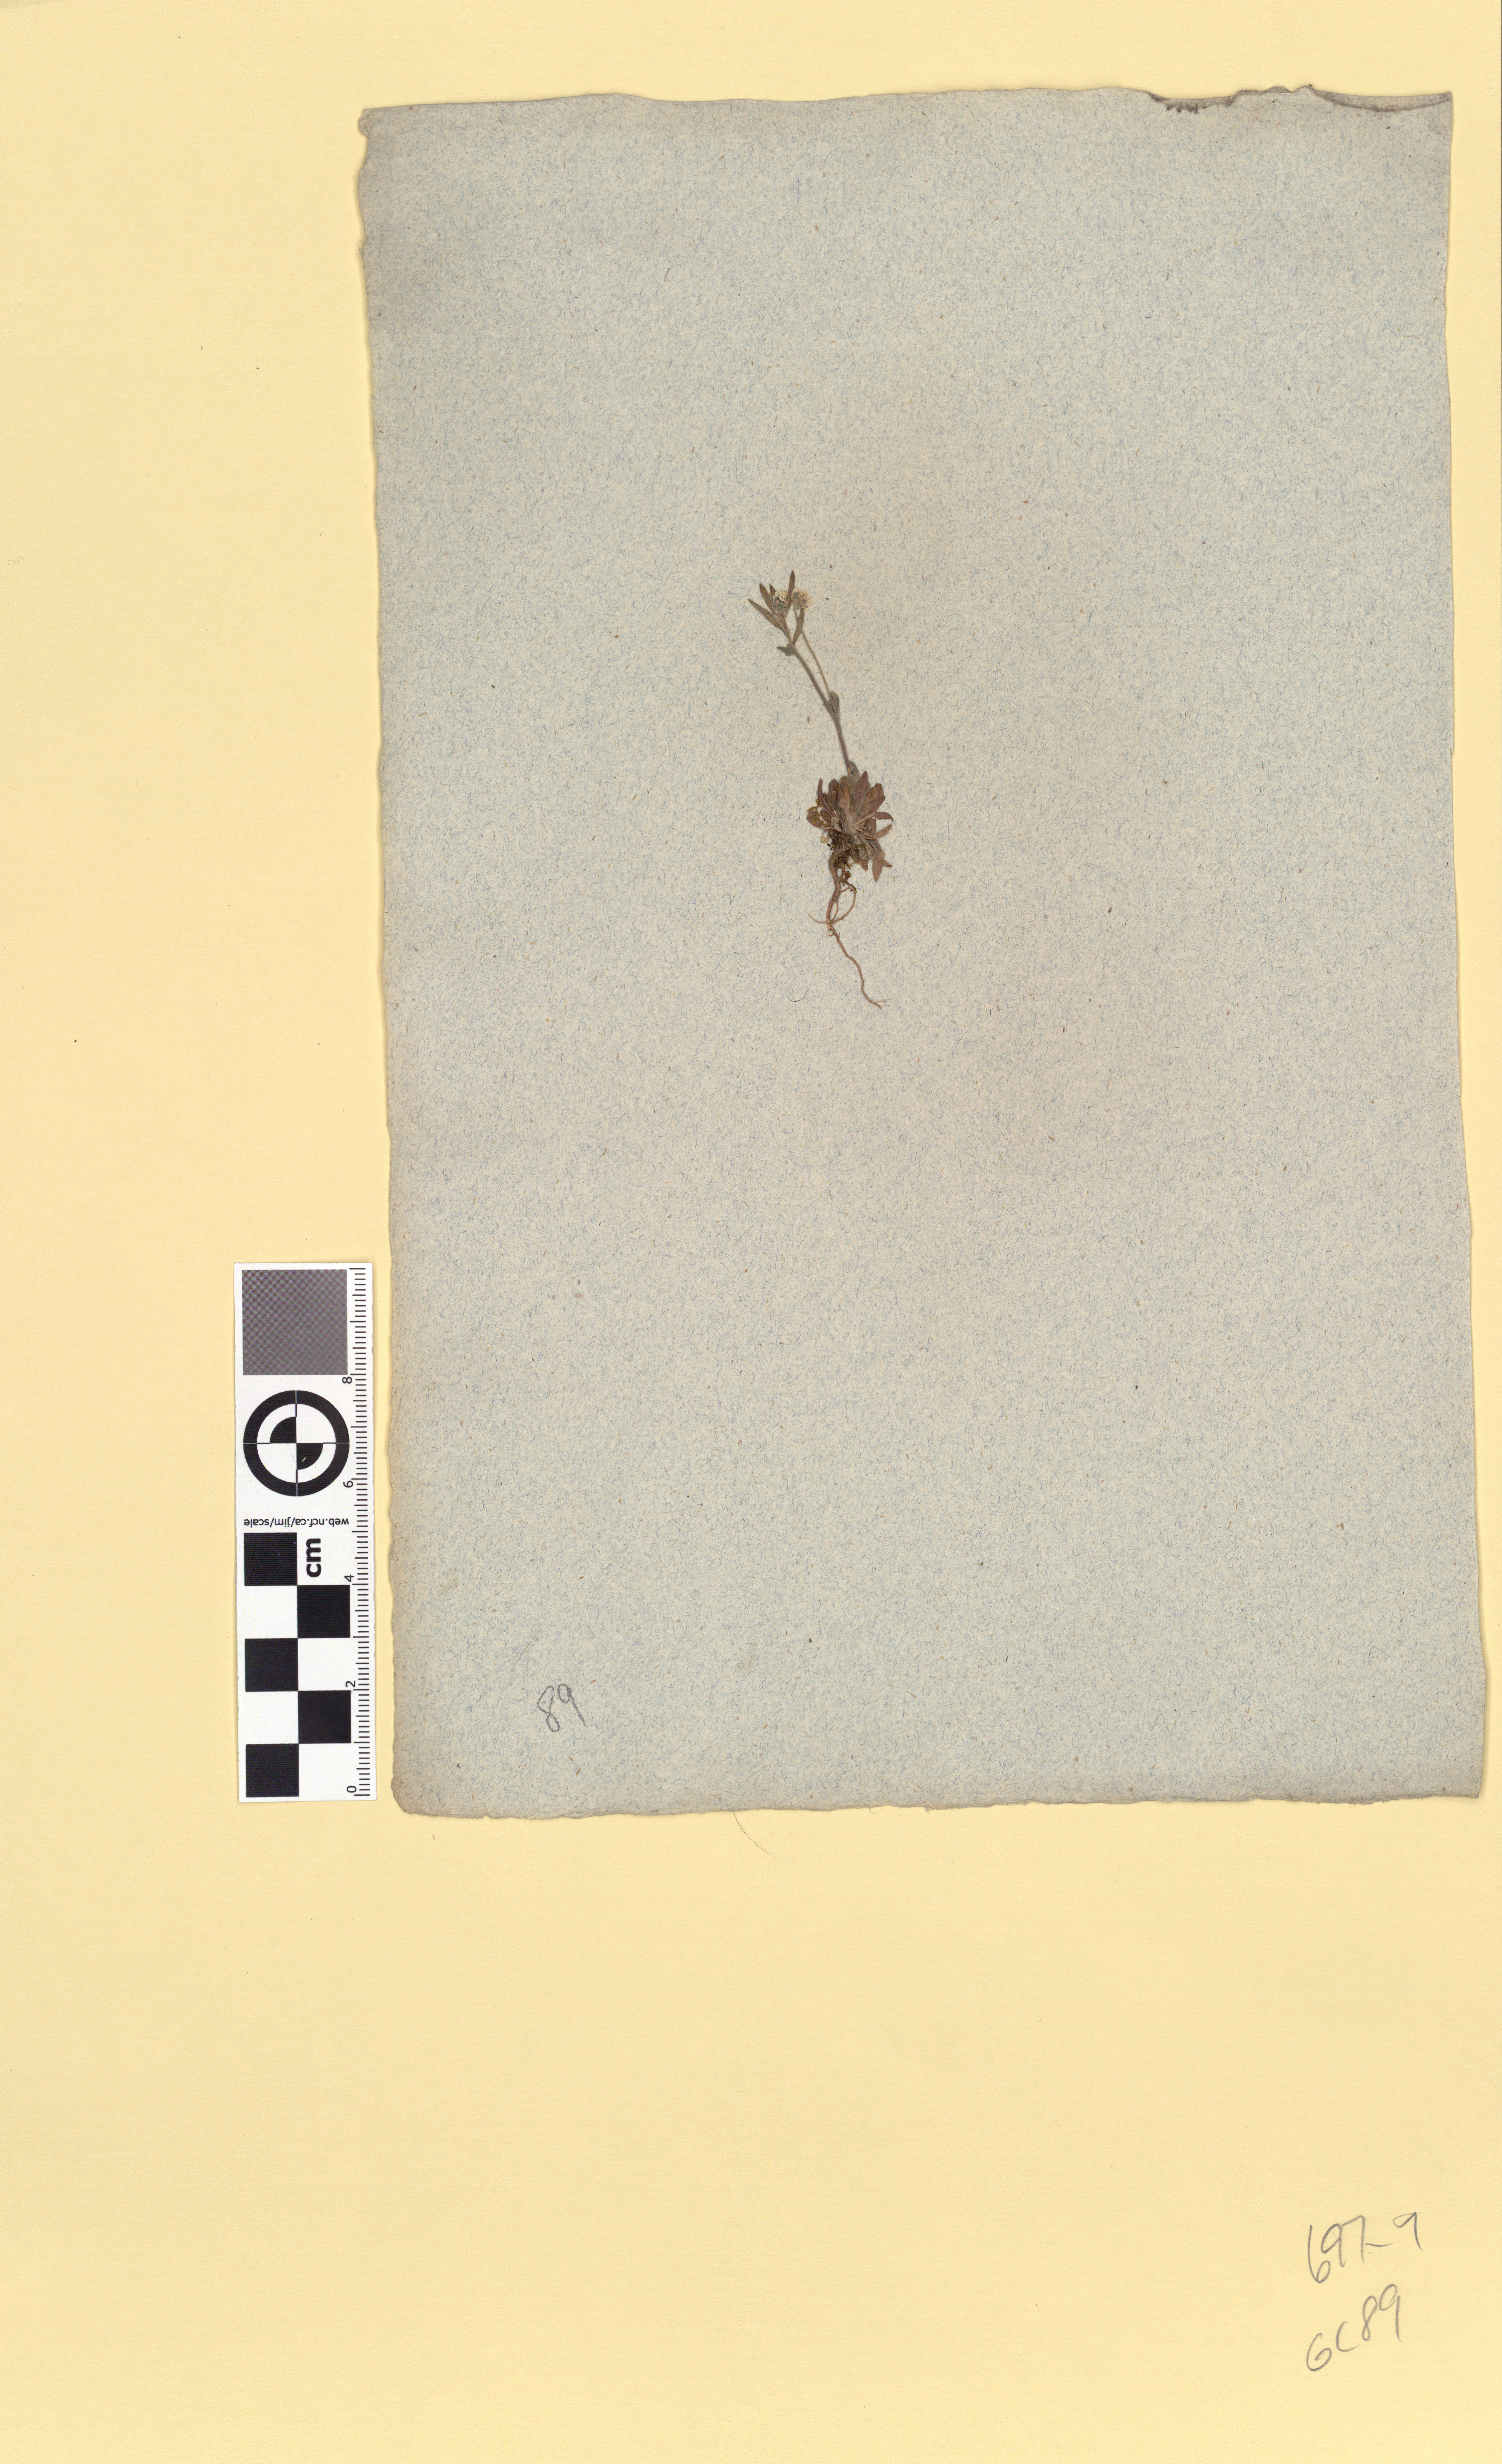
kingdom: Plantae
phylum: Tracheophyta
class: Magnoliopsida
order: Brassicales
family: Brassicaceae
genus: Draba
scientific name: Draba incana
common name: Hoary whitlow-grass
